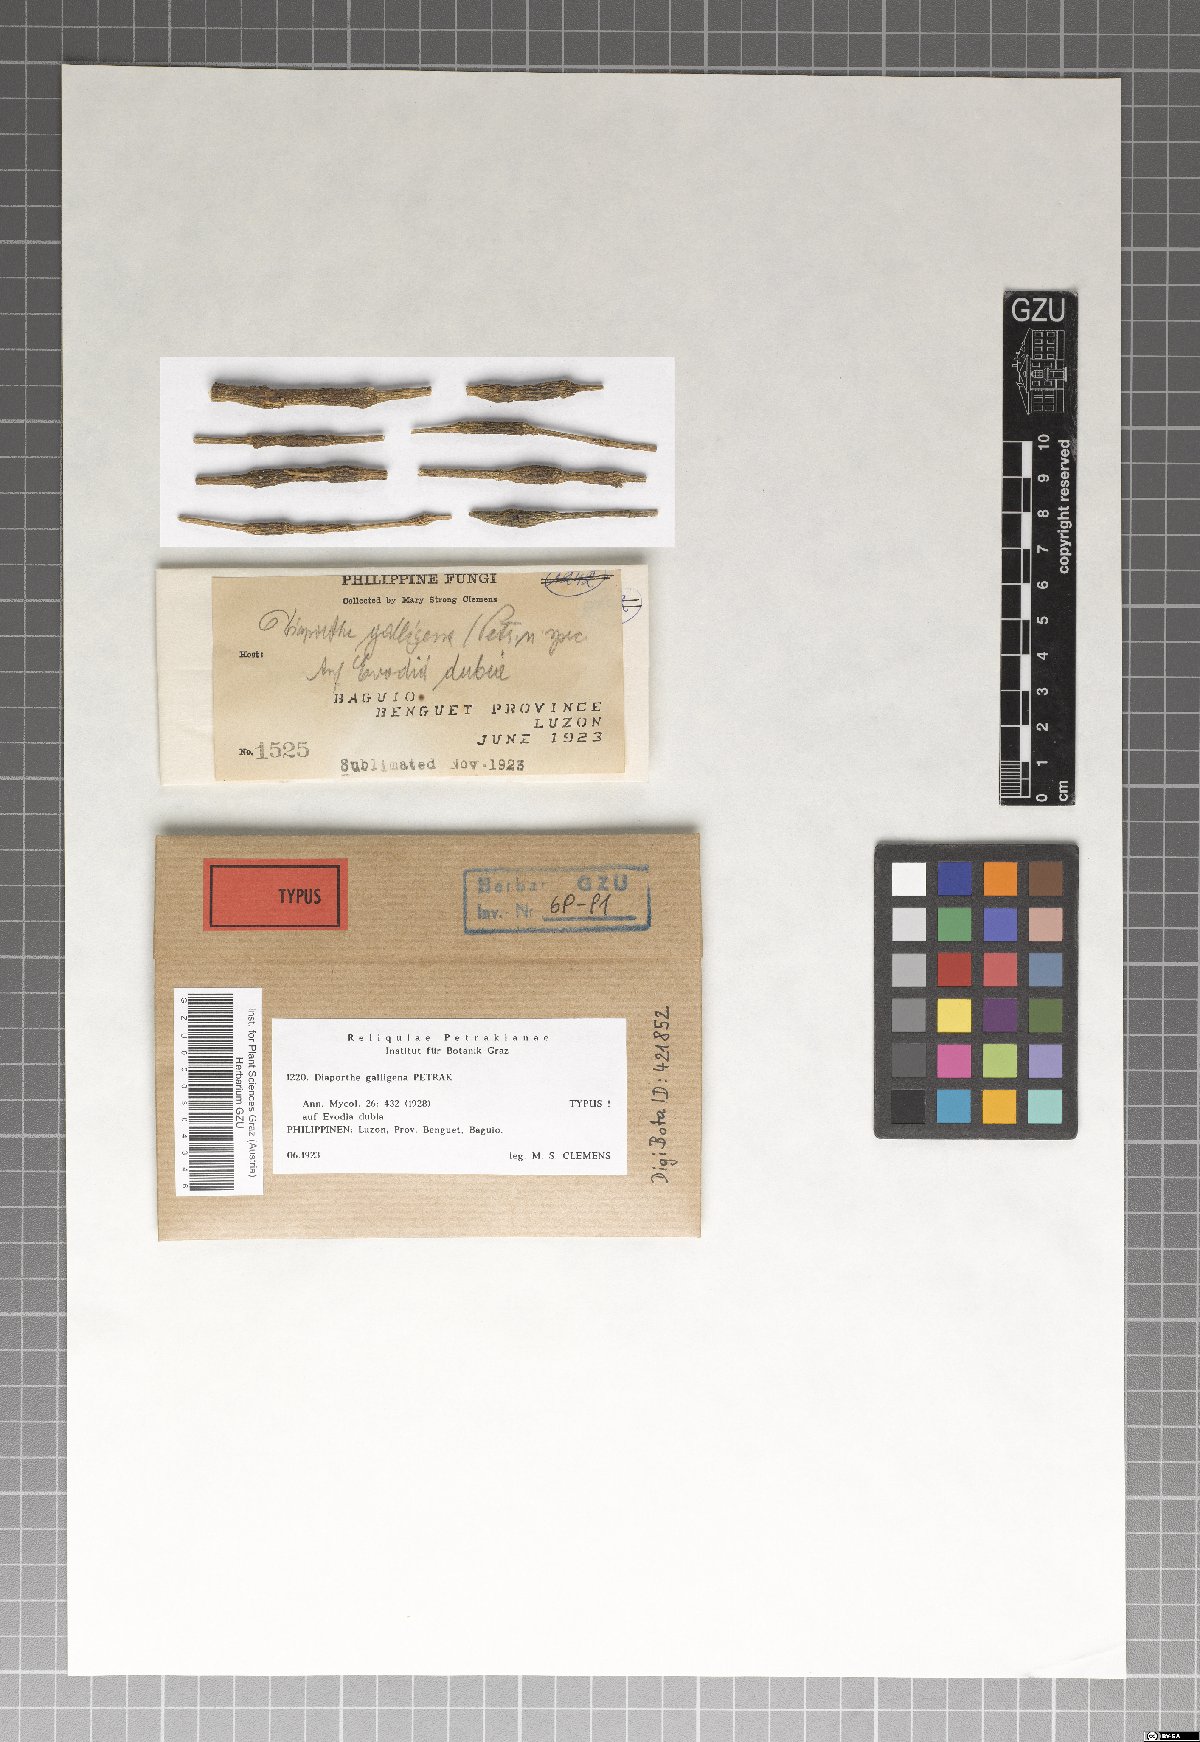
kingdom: Fungi
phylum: Ascomycota
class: Sordariomycetes
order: Diaporthales
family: Diaporthaceae
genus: Diaporthe
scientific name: Diaporthe galligena
